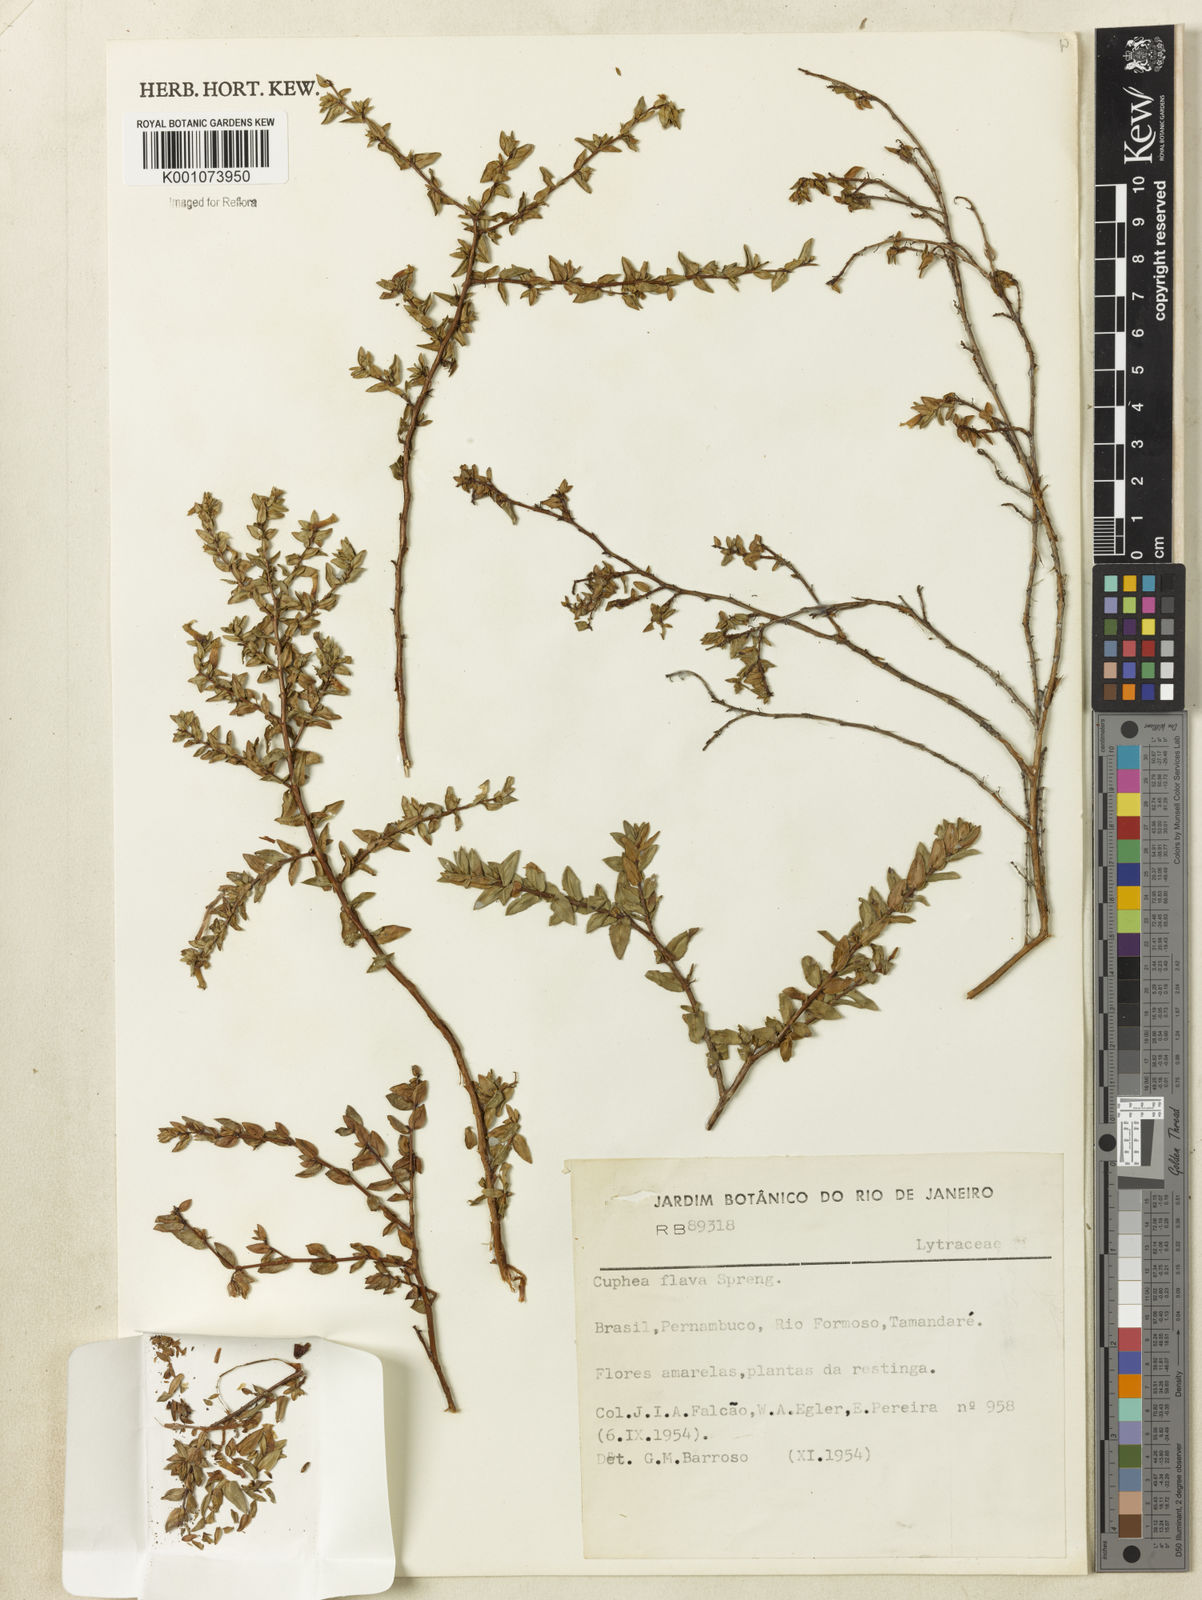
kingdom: Plantae
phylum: Tracheophyta
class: Magnoliopsida
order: Myrtales
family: Lythraceae
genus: Cuphea
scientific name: Cuphea flava
